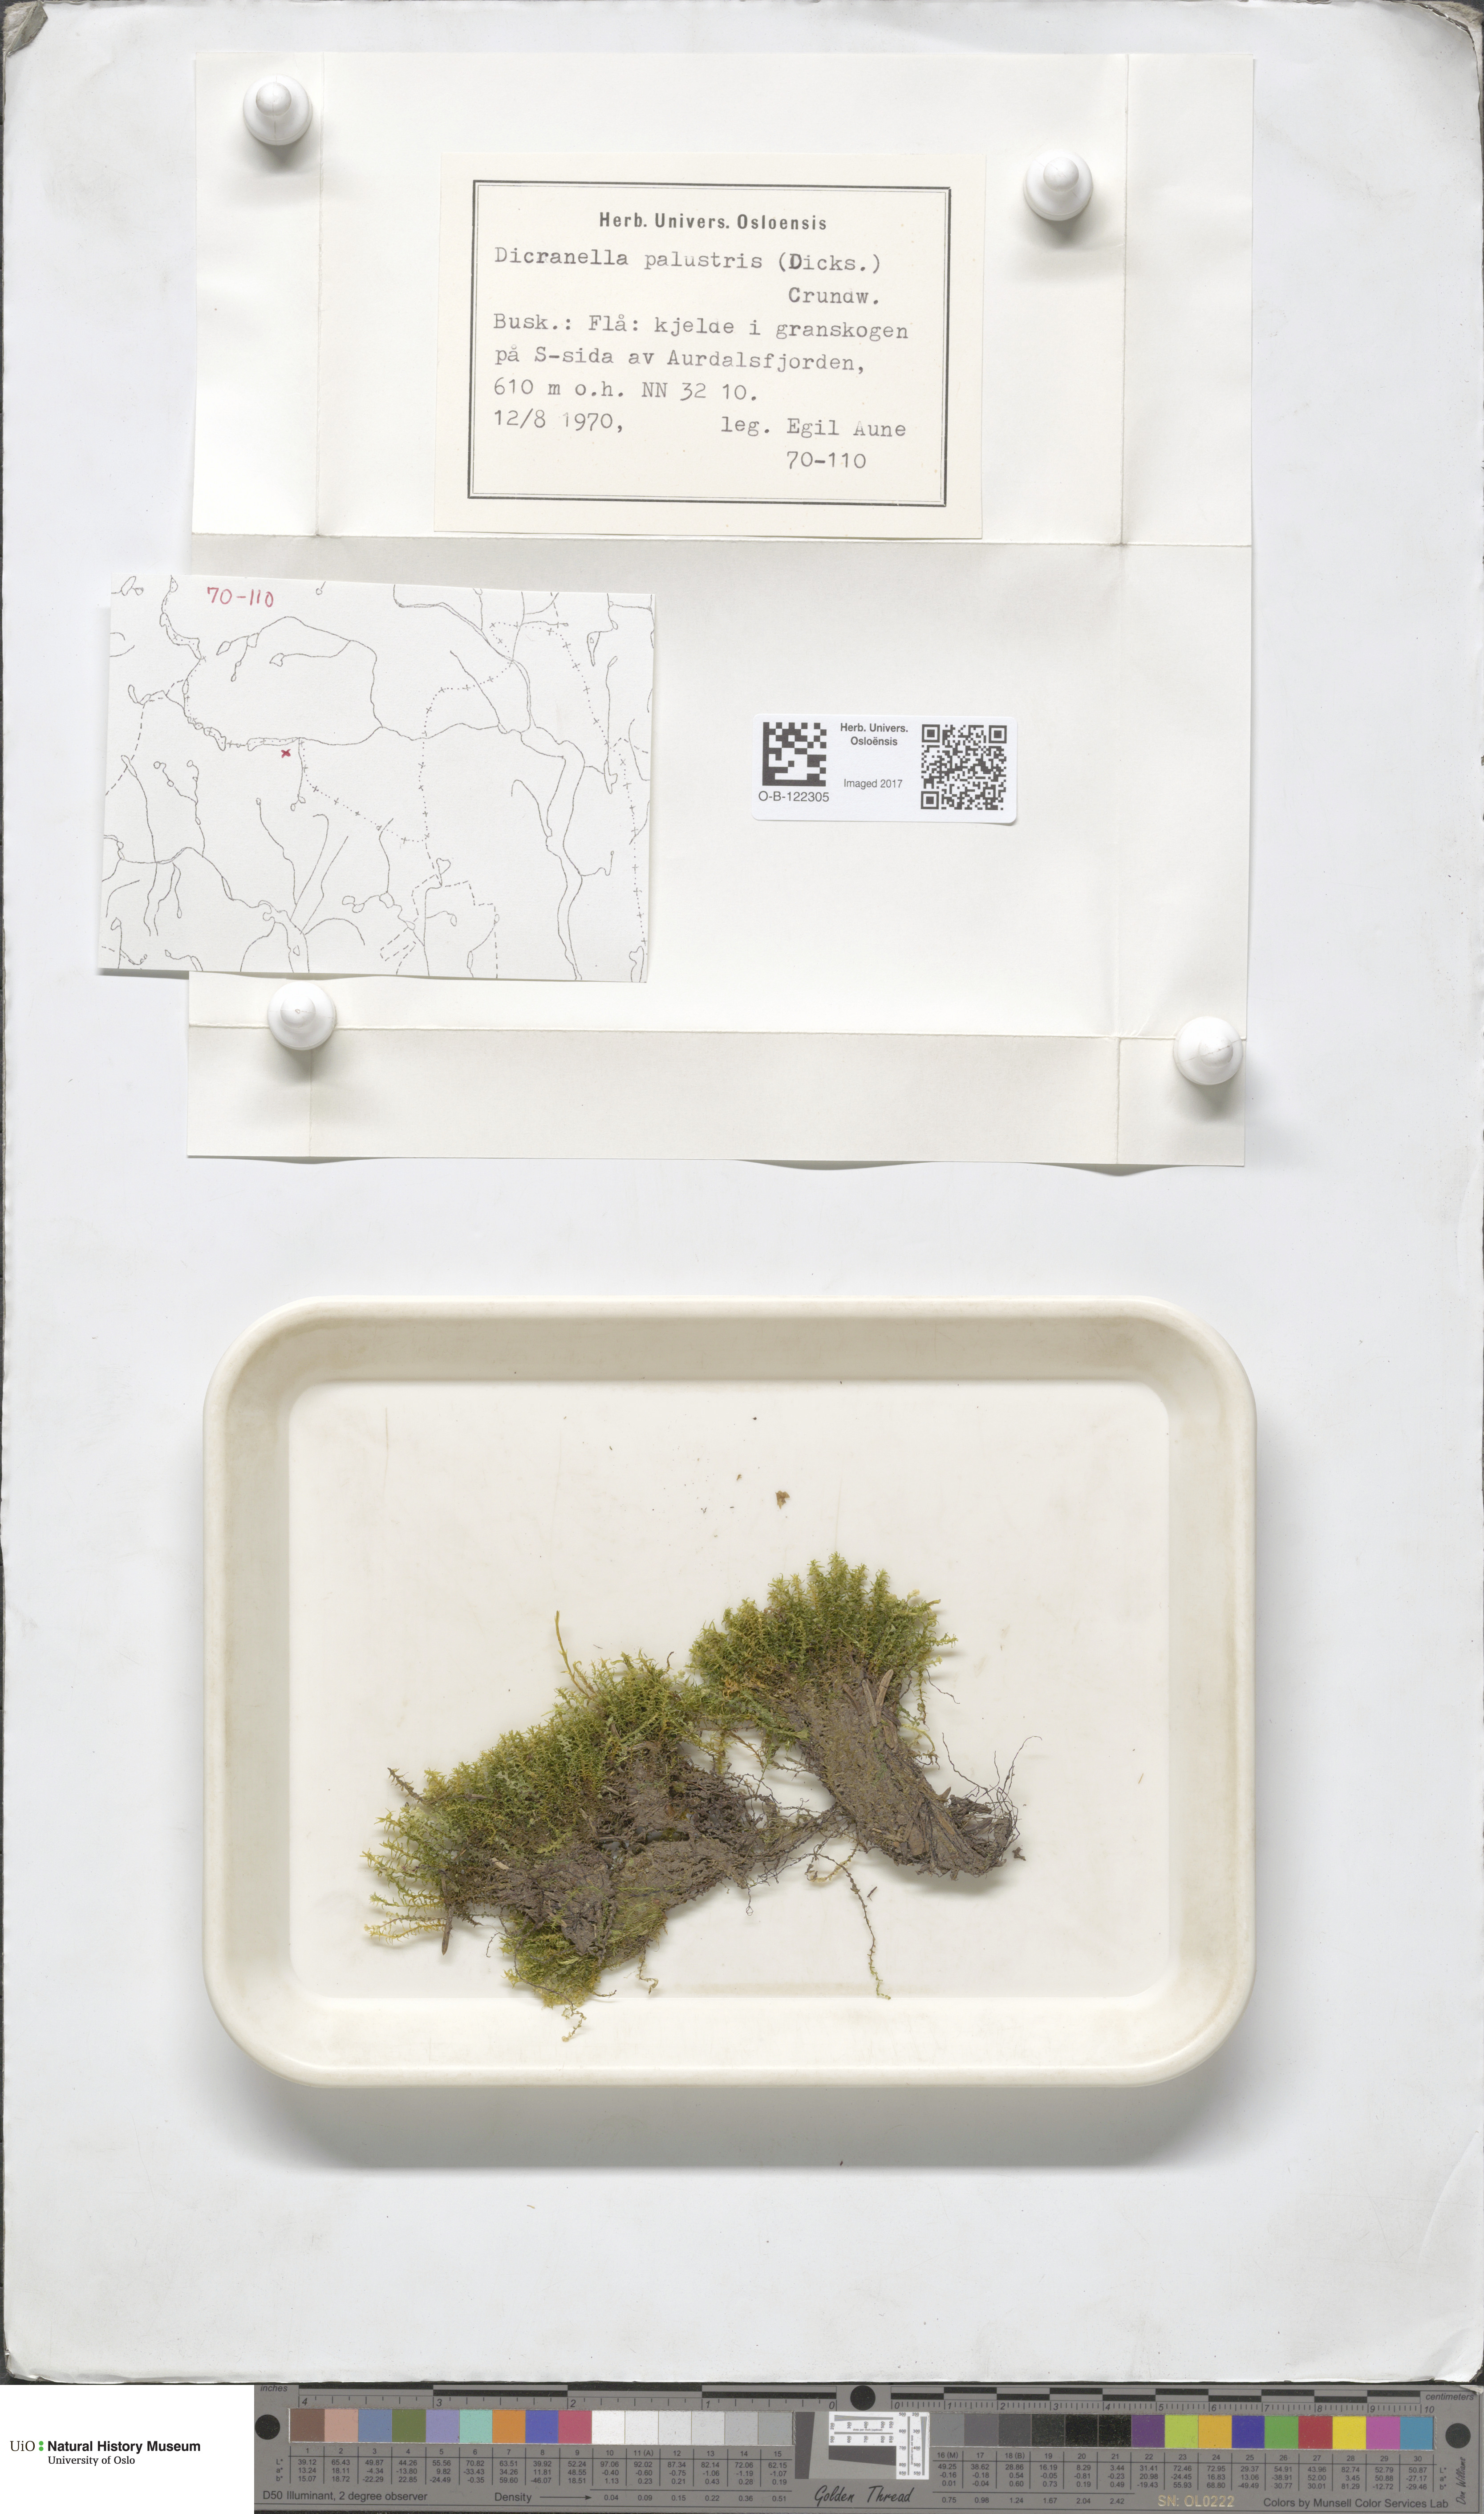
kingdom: Plantae
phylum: Bryophyta
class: Bryopsida
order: Dicranales
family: Aongstroemiaceae
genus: Diobelonella
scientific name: Diobelonella palustris
